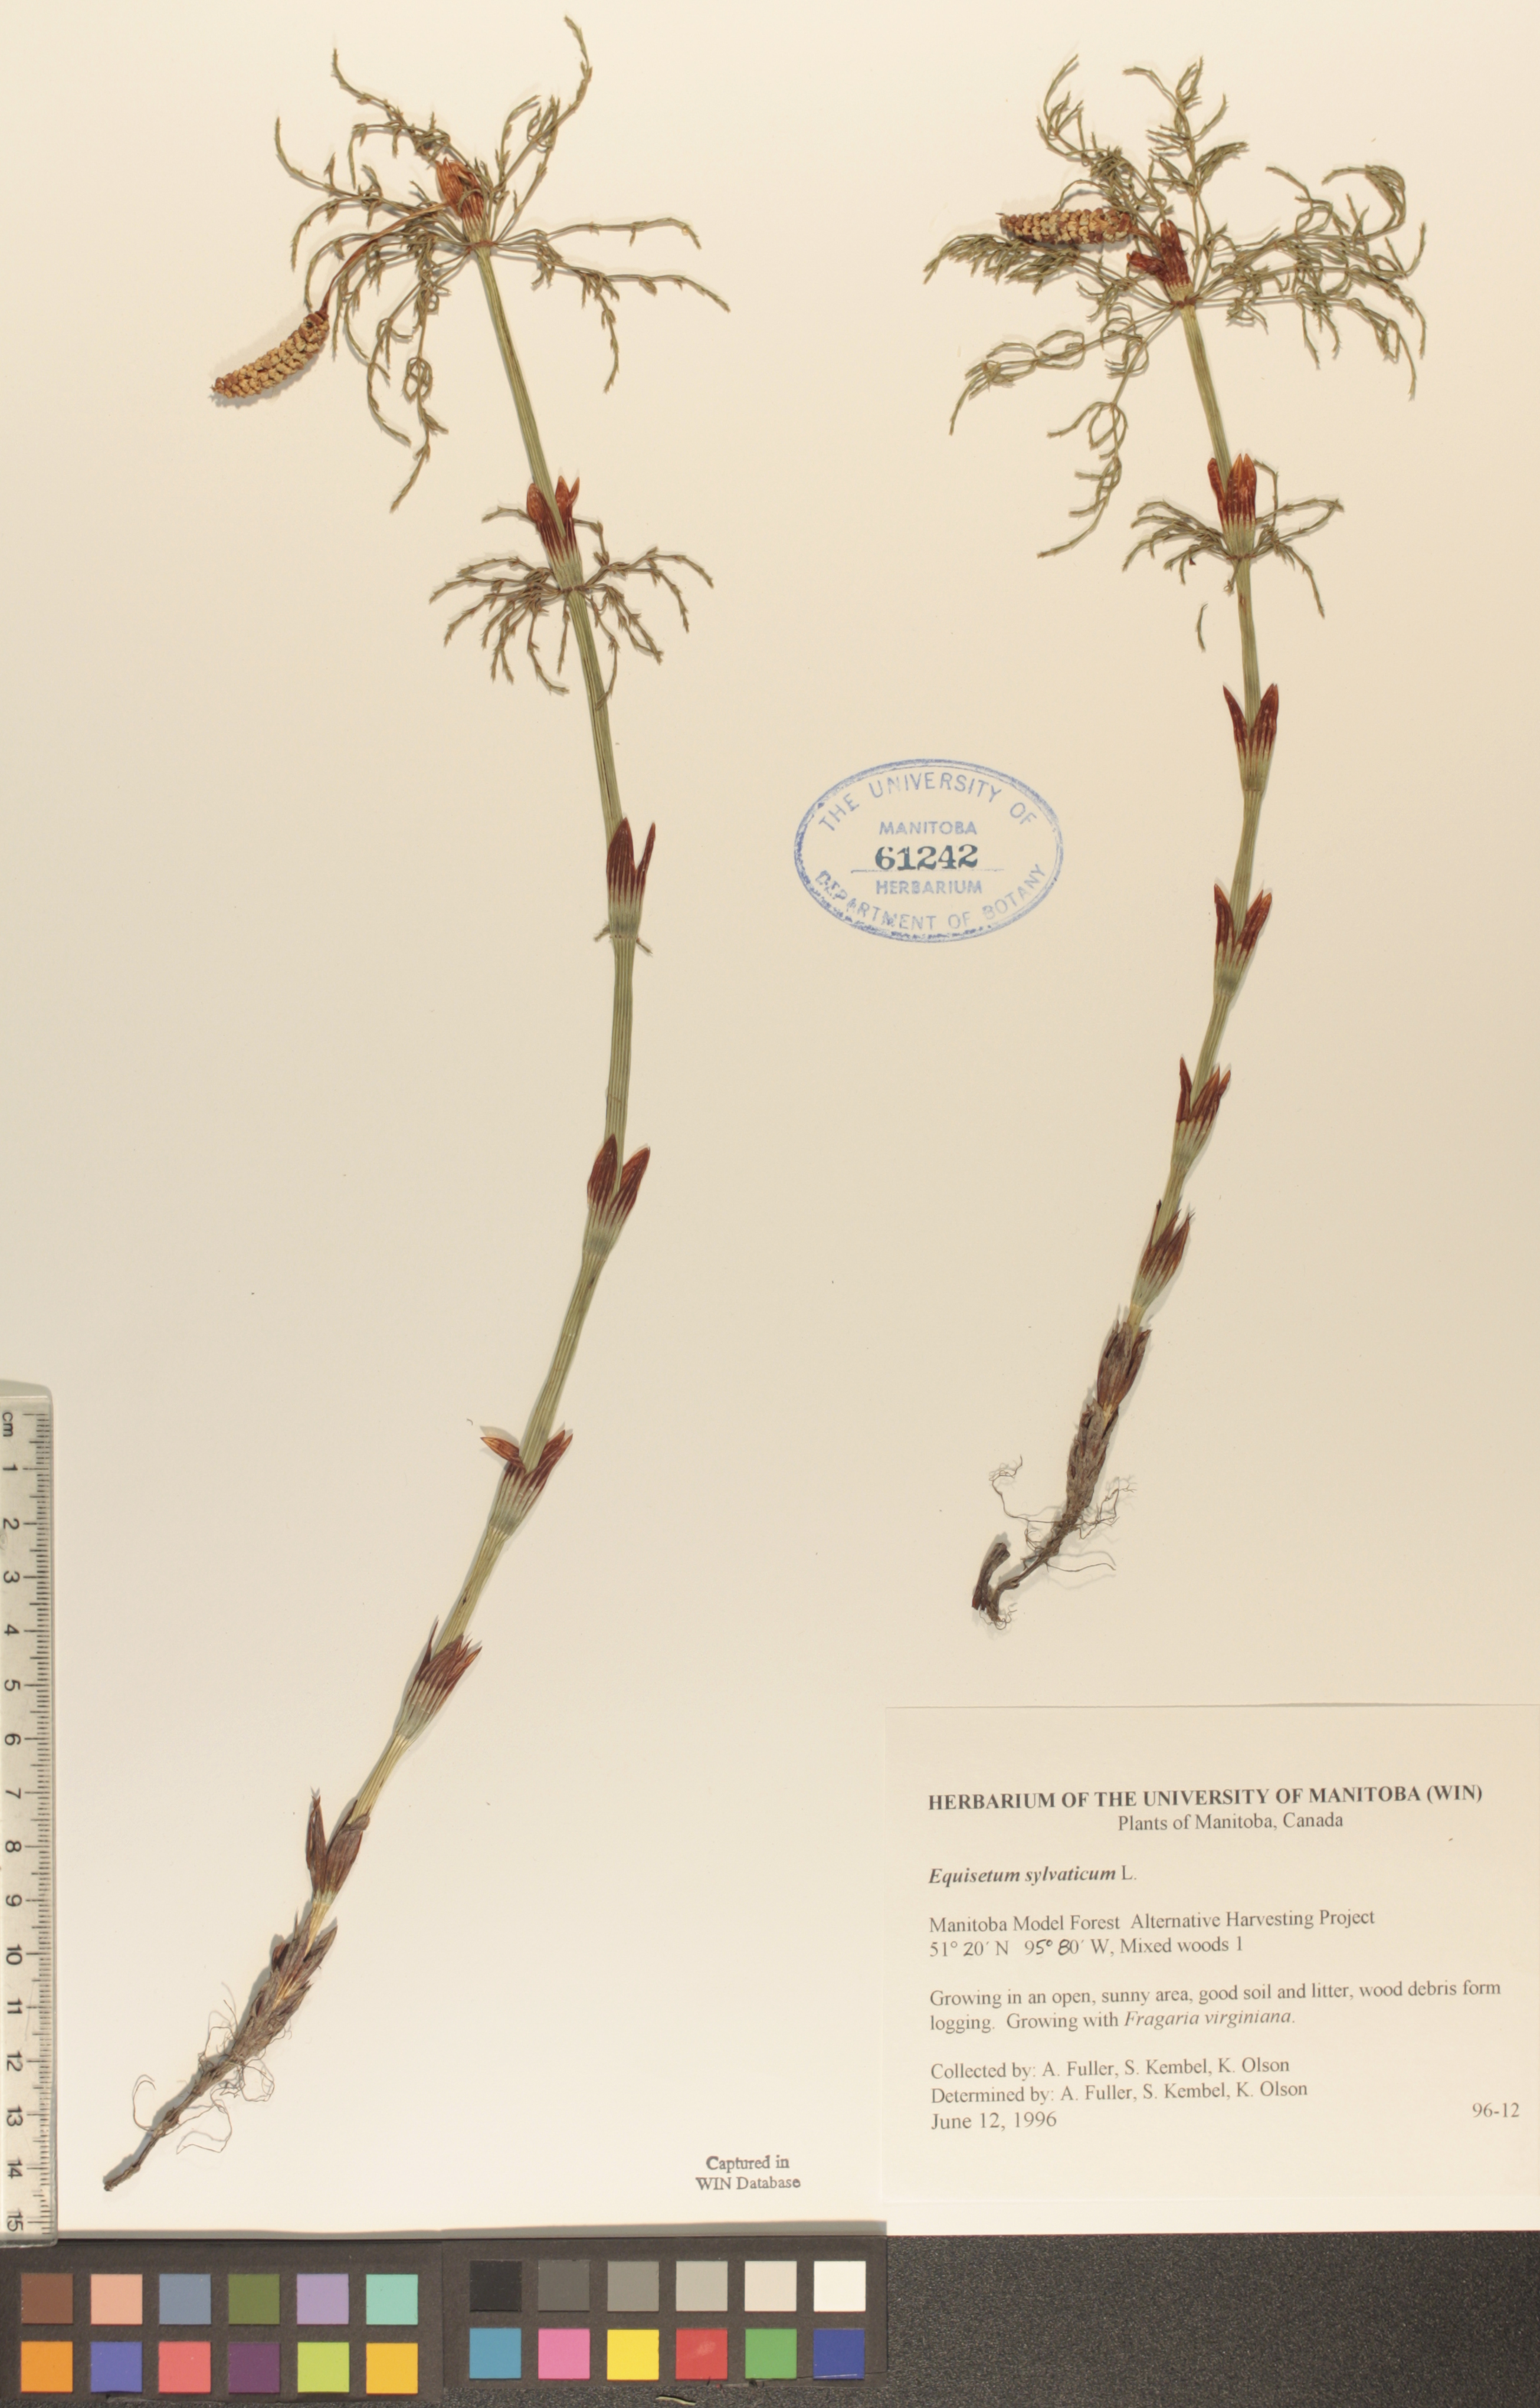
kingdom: Plantae
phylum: Tracheophyta
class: Polypodiopsida
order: Equisetales
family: Equisetaceae
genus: Equisetum
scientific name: Equisetum sylvaticum
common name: Wood horsetail
